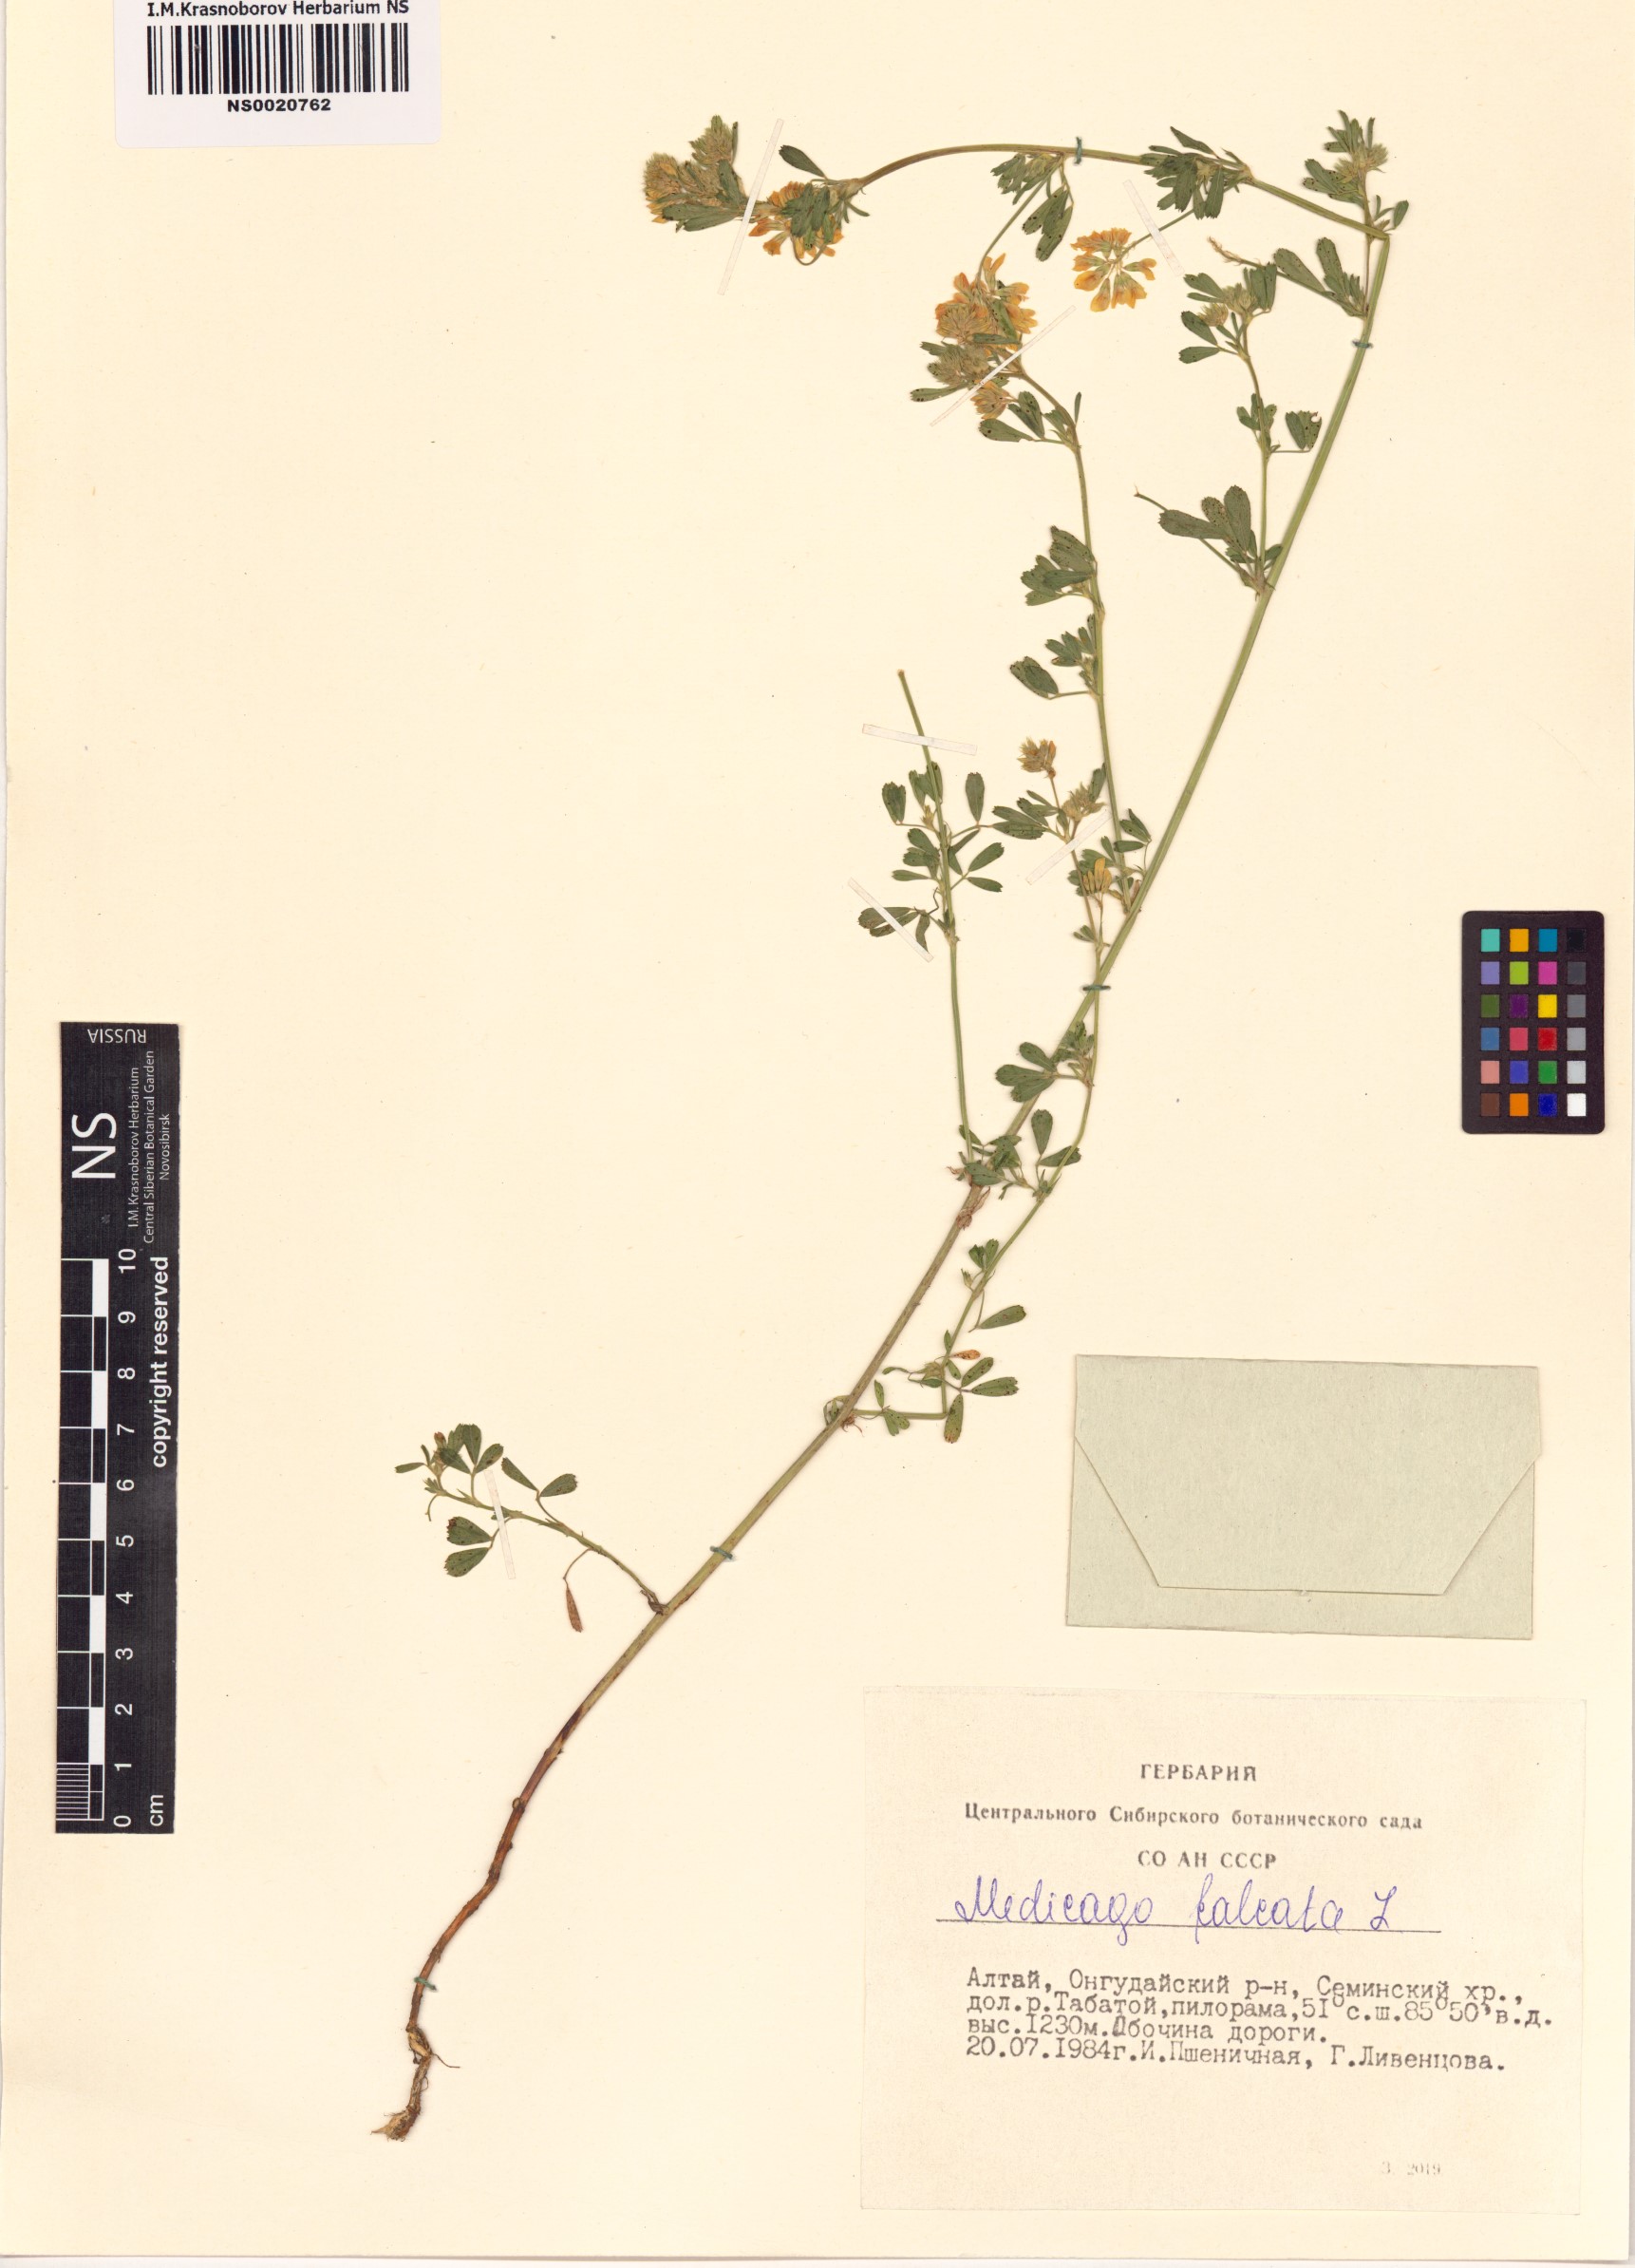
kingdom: Plantae
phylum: Tracheophyta
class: Magnoliopsida
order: Fabales
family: Fabaceae
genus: Medicago
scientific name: Medicago falcata
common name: Sickle medick
